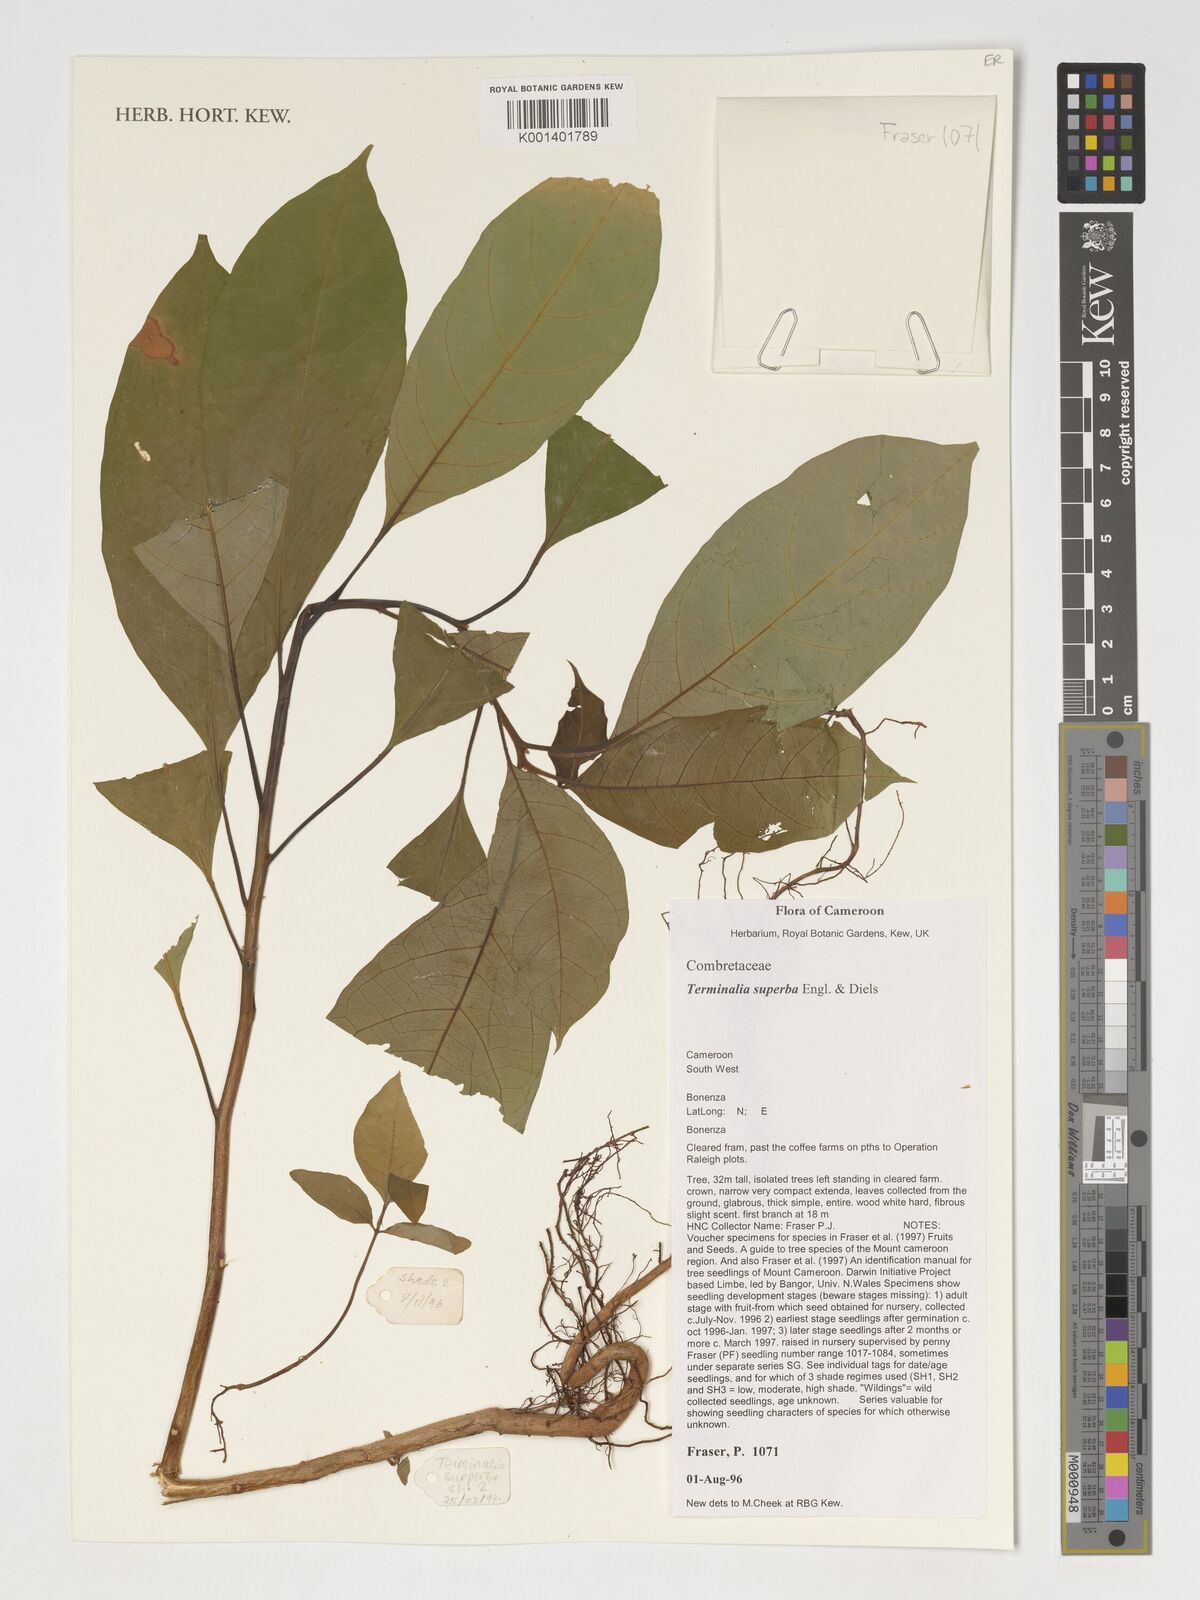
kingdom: Plantae
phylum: Tracheophyta
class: Magnoliopsida
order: Myrtales
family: Combretaceae
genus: Terminalia
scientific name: Terminalia superba
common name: White afara
